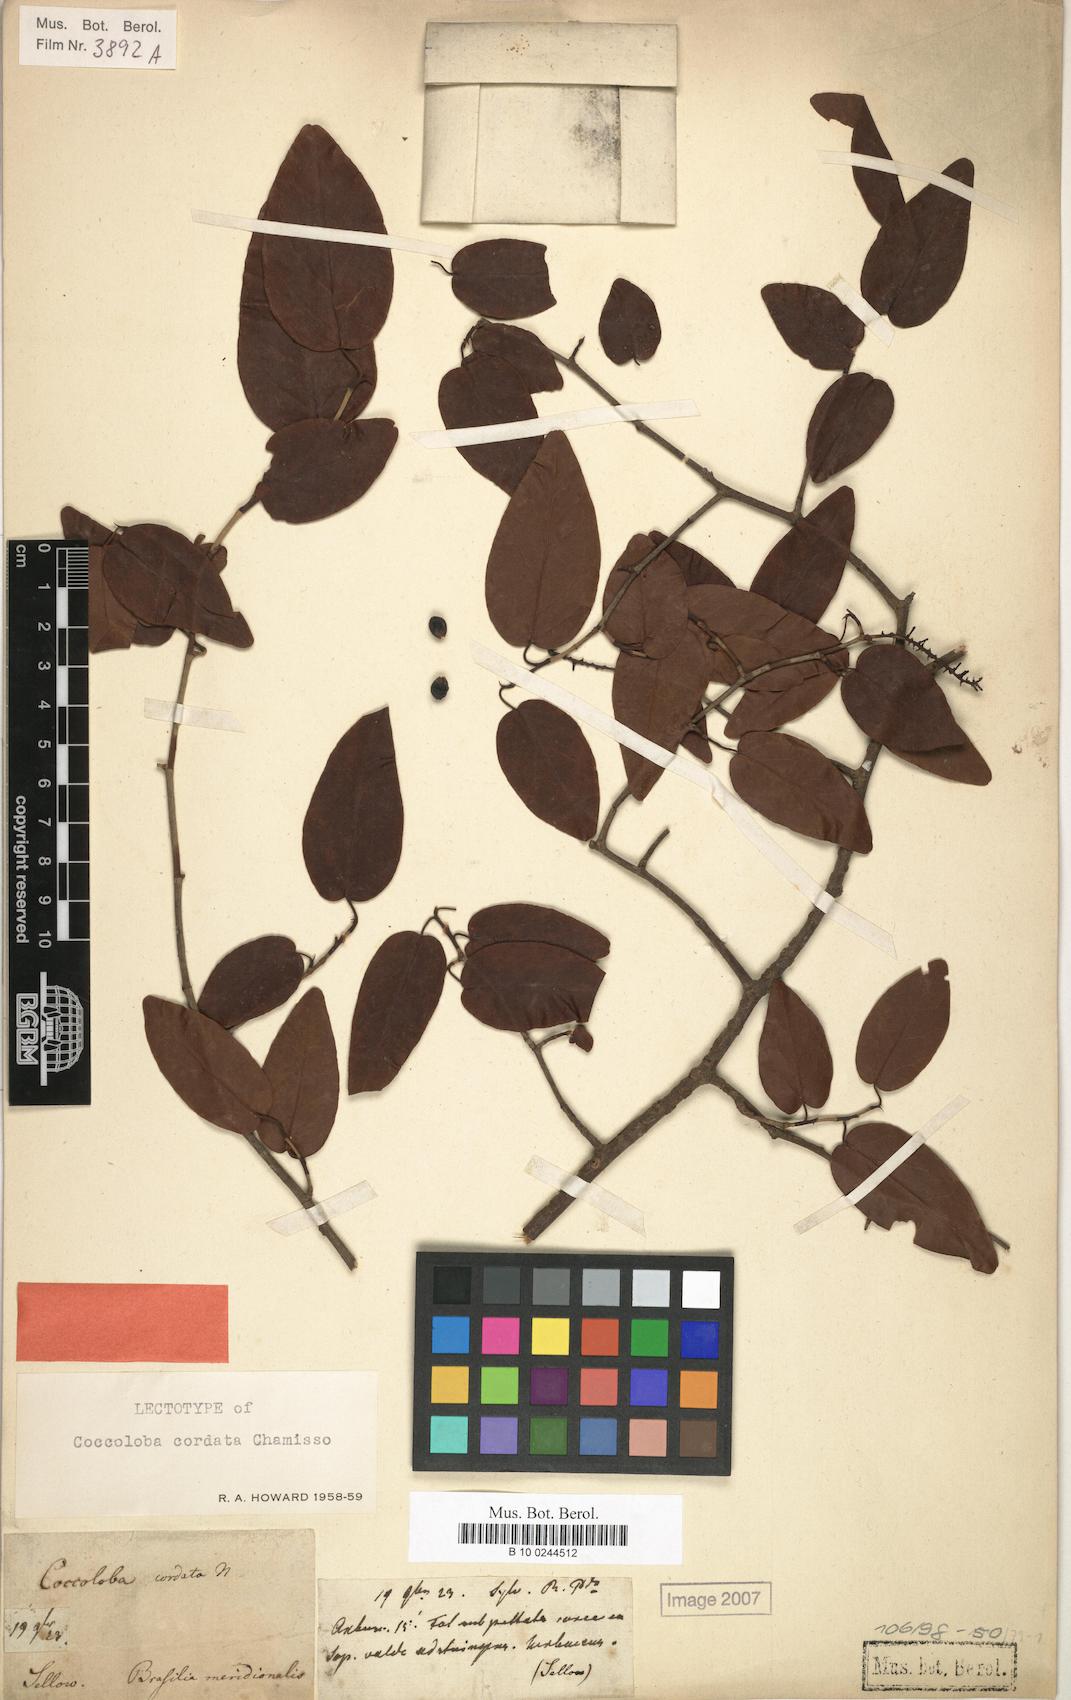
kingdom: Plantae
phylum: Tracheophyta
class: Magnoliopsida
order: Caryophyllales
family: Polygonaceae
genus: Coccoloba
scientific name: Coccoloba cordata
